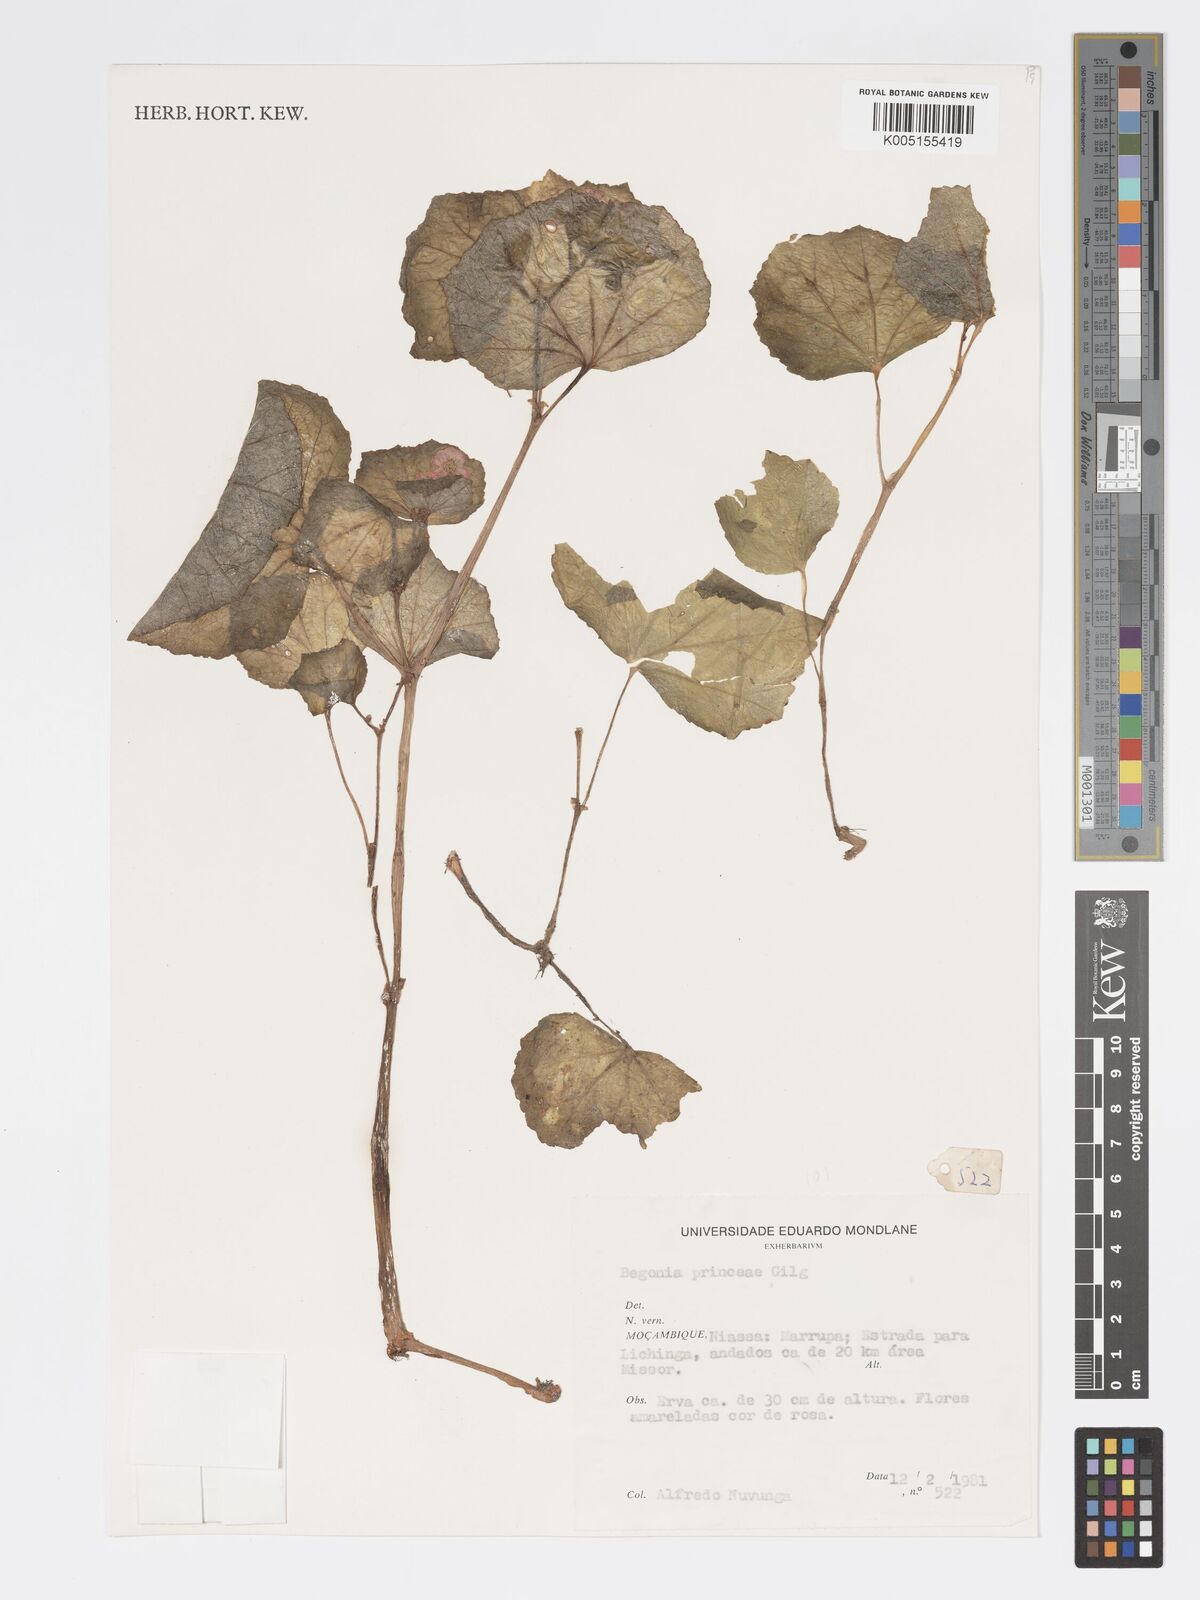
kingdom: Plantae
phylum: Tracheophyta
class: Magnoliopsida
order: Cucurbitales
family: Begoniaceae
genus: Begonia
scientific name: Begonia princeae
